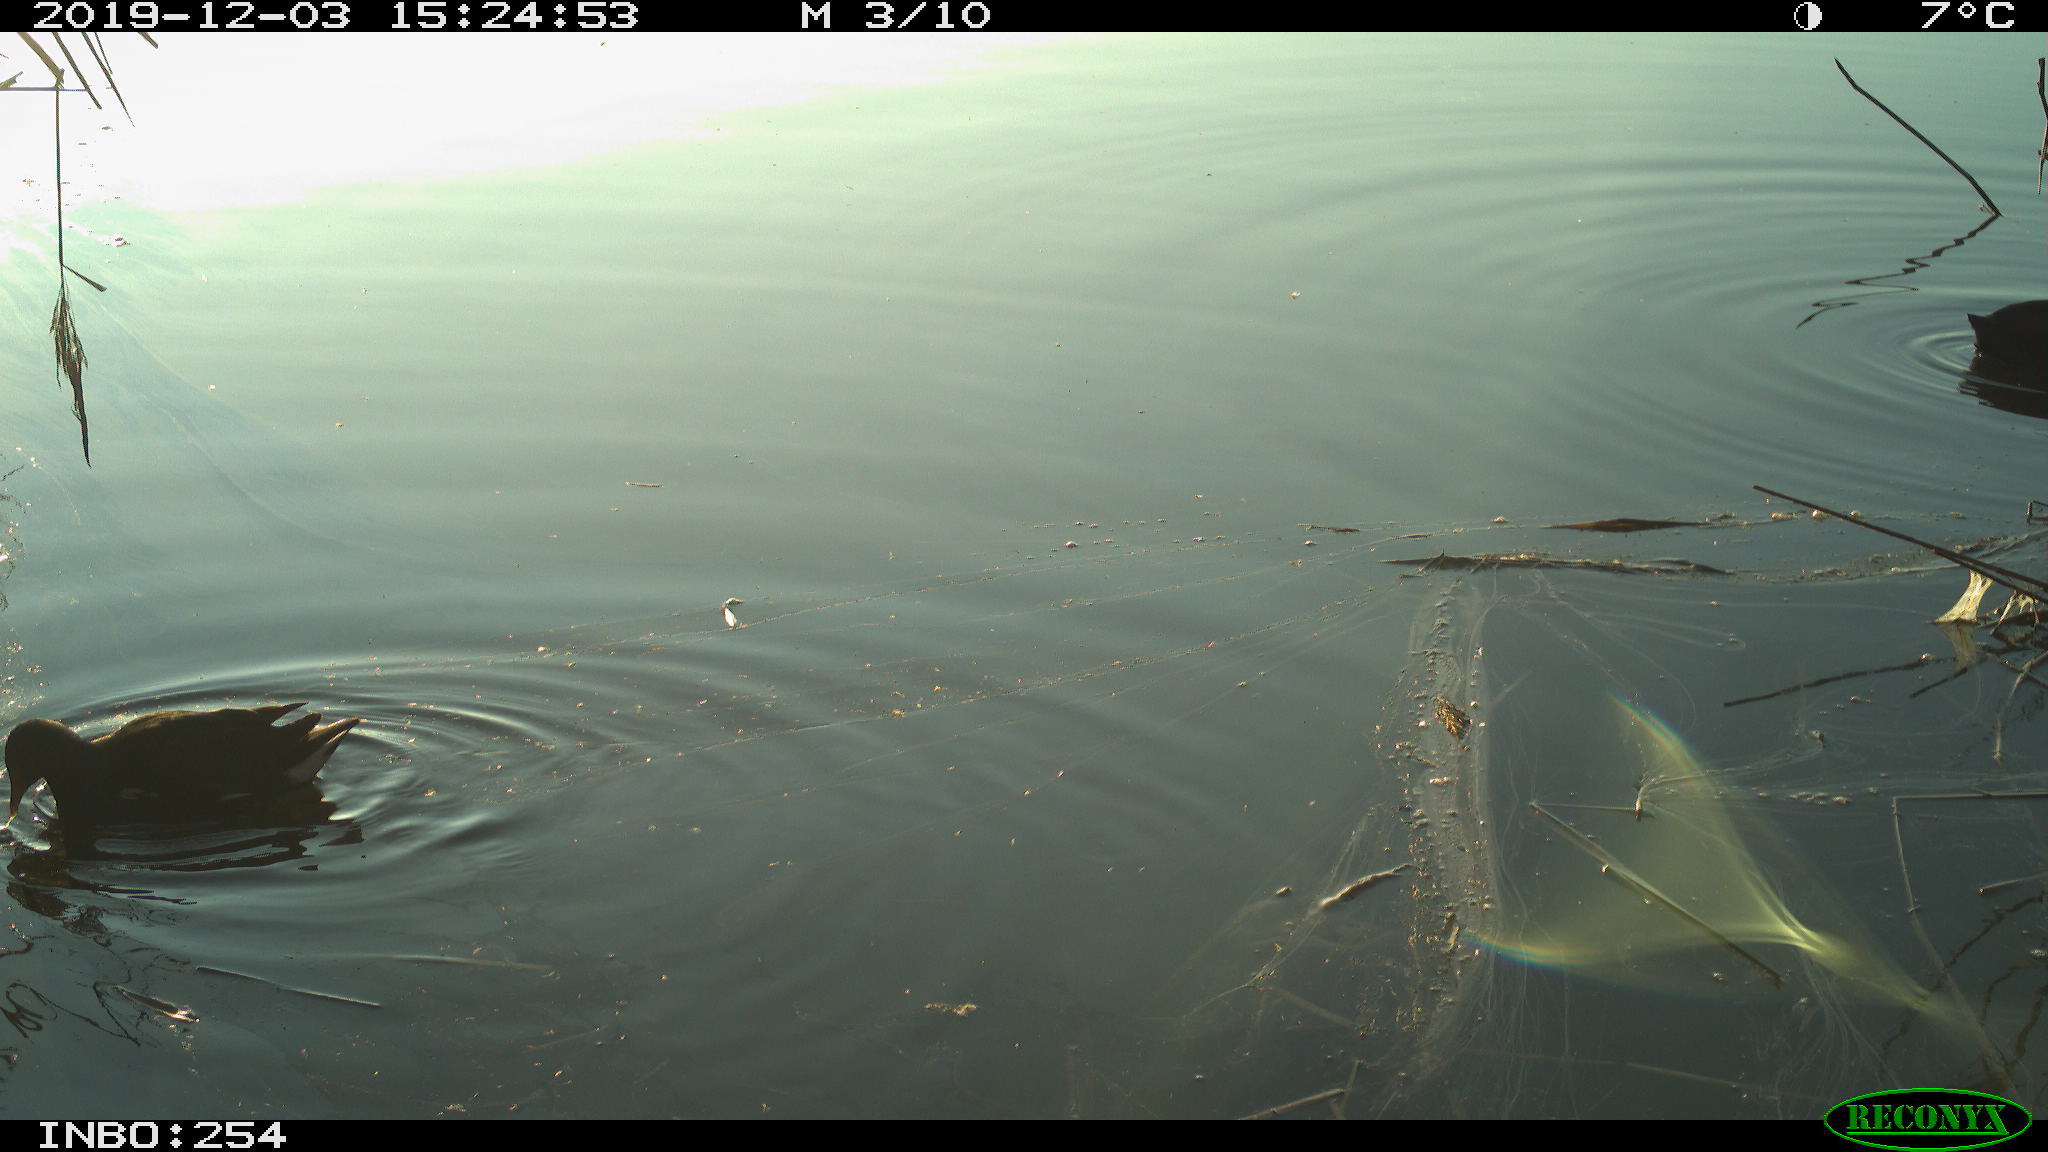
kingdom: Animalia
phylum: Chordata
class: Aves
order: Gruiformes
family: Rallidae
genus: Fulica
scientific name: Fulica atra
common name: Eurasian coot
